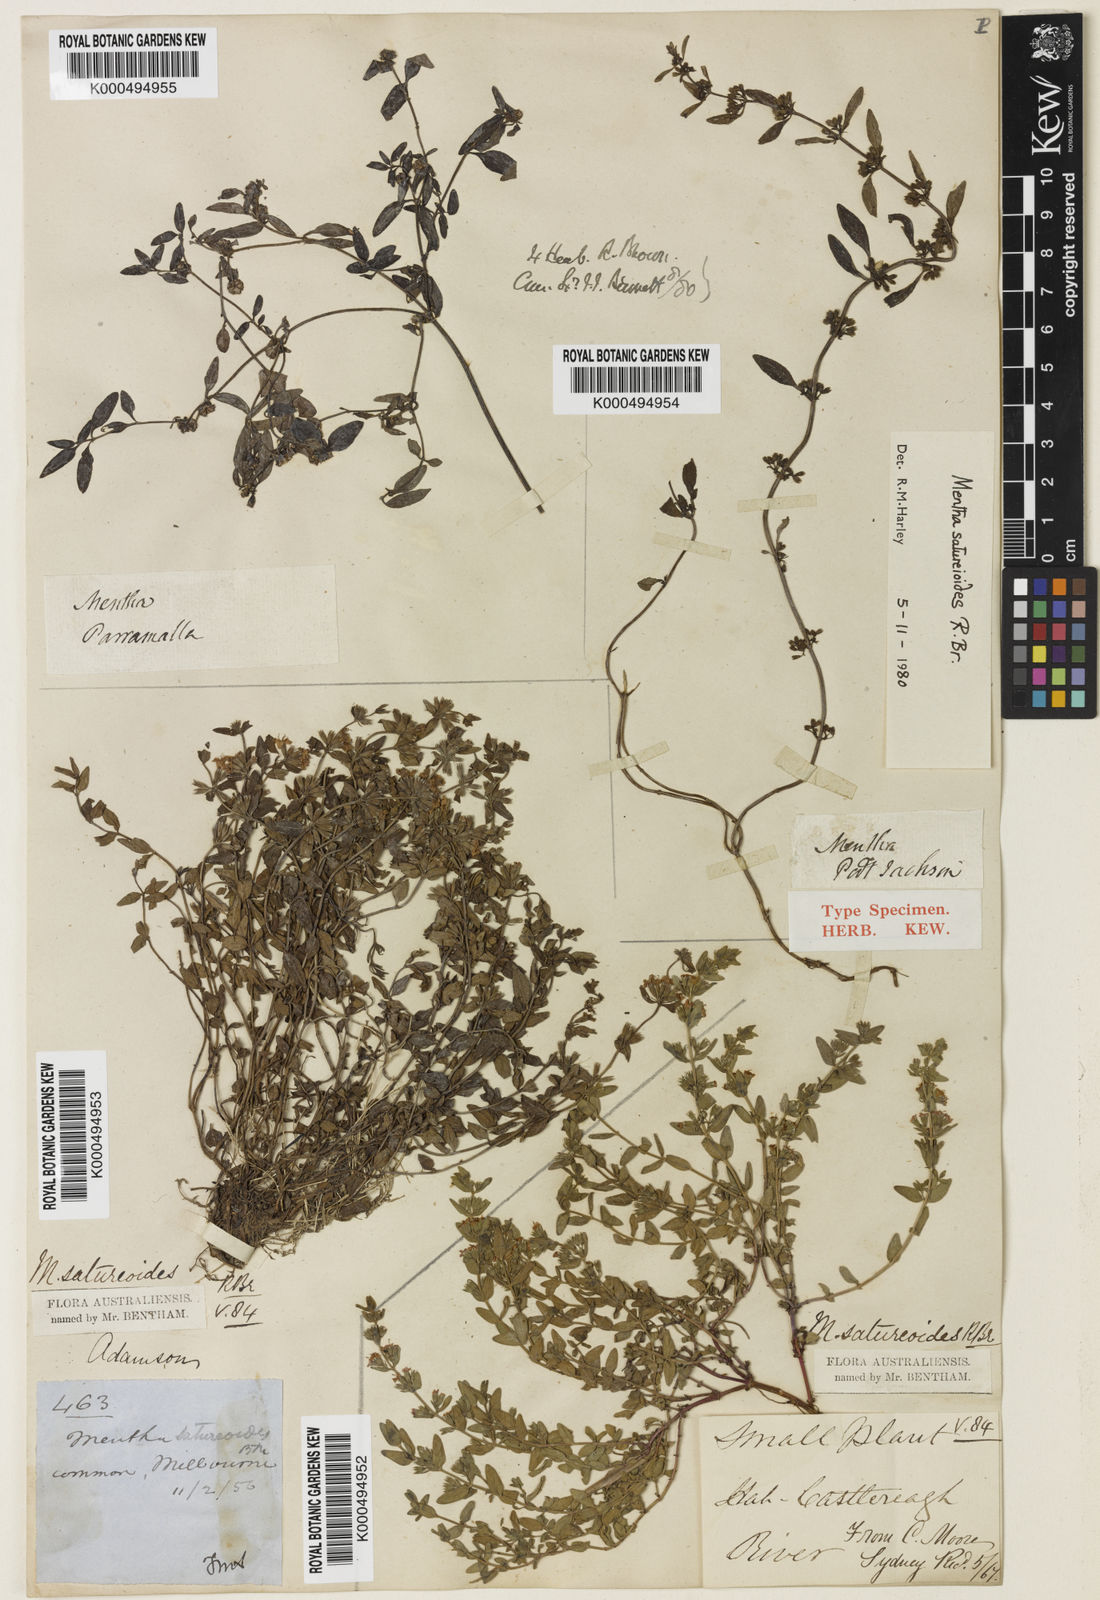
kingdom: Plantae
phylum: Tracheophyta
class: Magnoliopsida
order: Lamiales
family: Lamiaceae
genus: Mentha
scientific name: Mentha satureioides
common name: Brisbane pennyroyal
